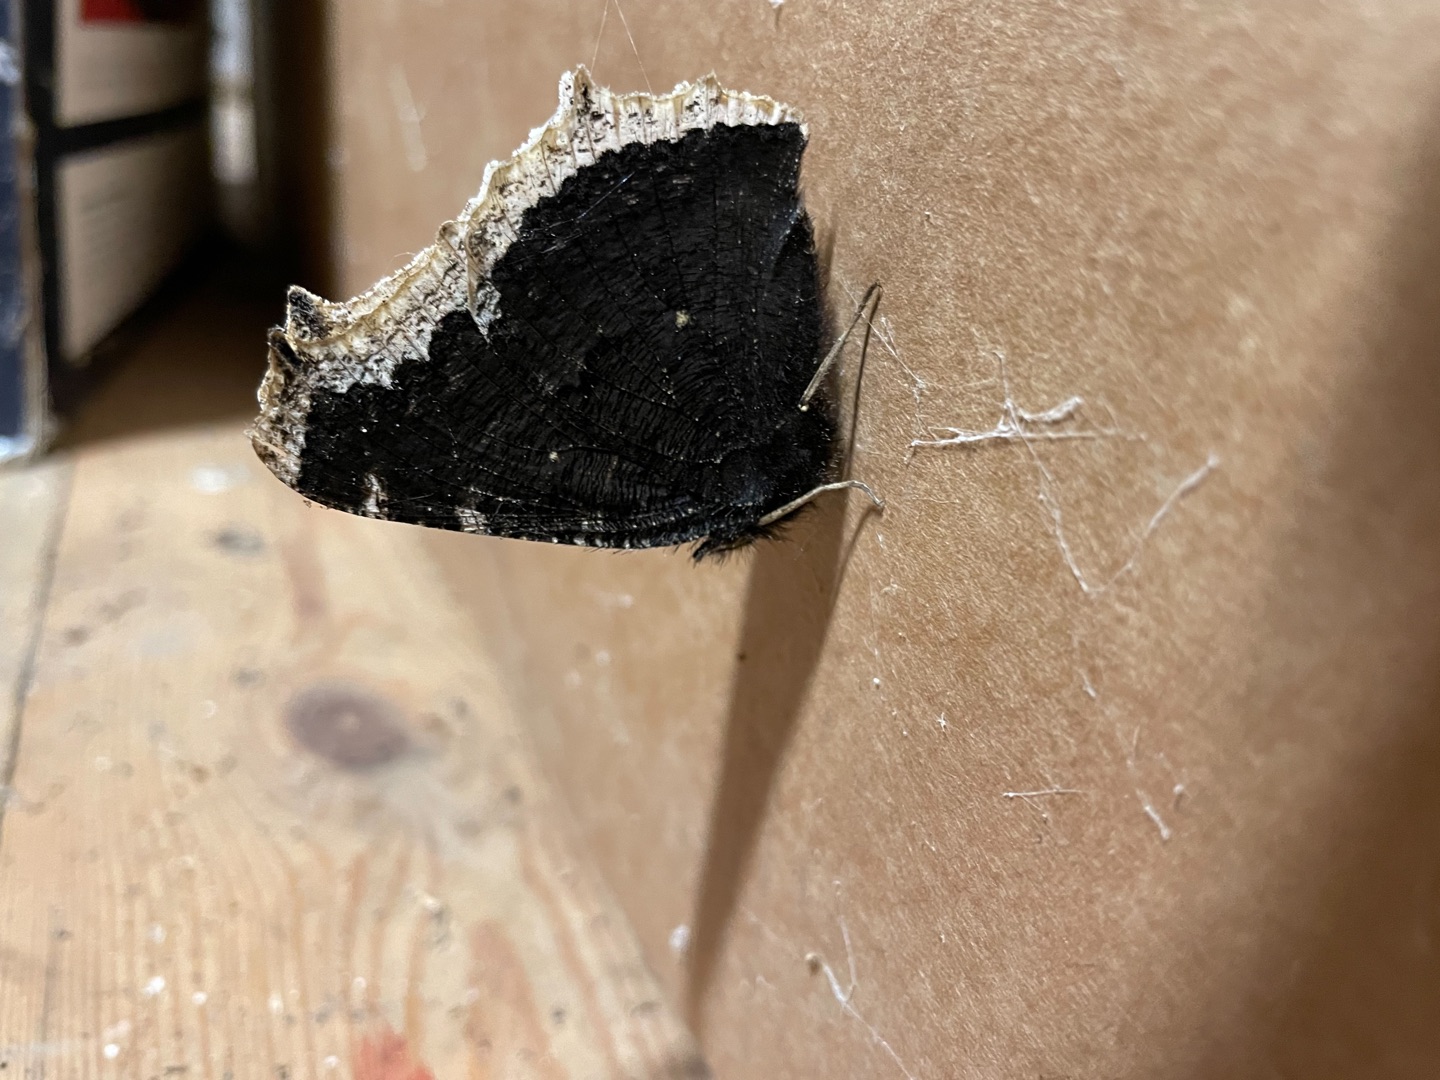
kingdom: Animalia
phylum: Arthropoda
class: Insecta
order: Lepidoptera
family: Nymphalidae
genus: Nymphalis
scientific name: Nymphalis antiopa
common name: Sørgekåbe
